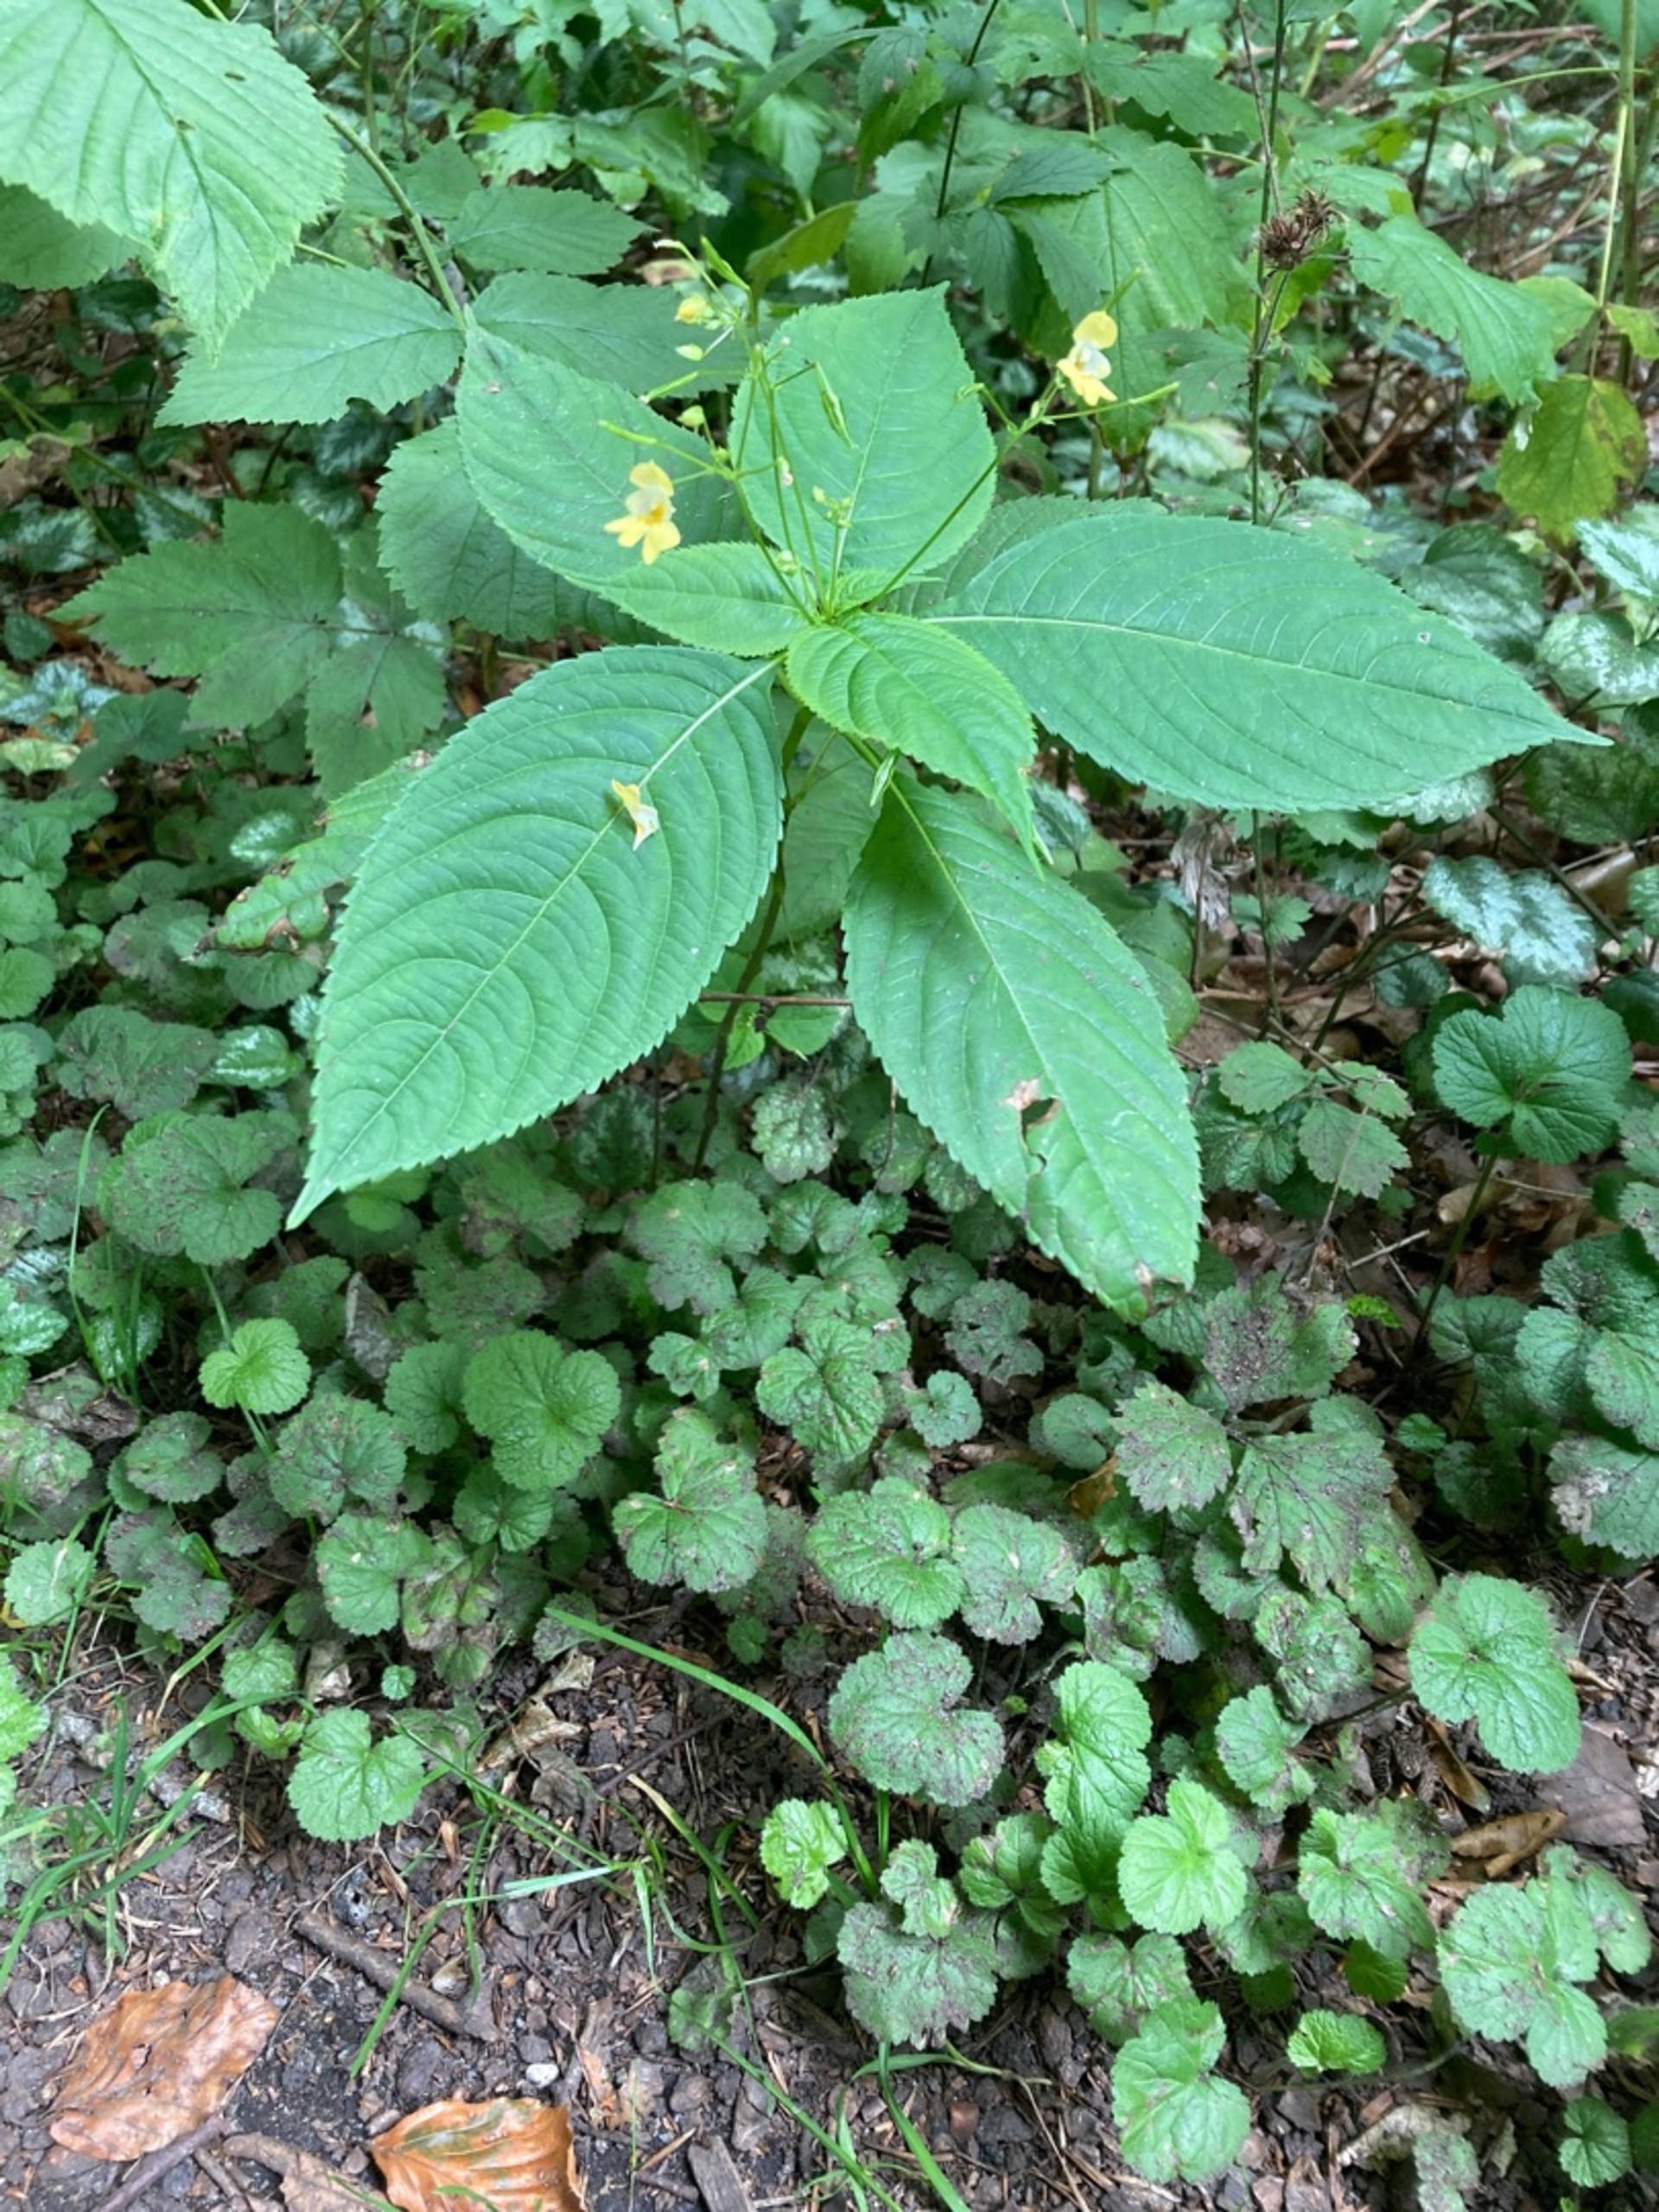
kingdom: Plantae
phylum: Tracheophyta
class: Magnoliopsida
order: Ericales
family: Balsaminaceae
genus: Impatiens
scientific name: Impatiens parviflora
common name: Småblomstret balsamin
